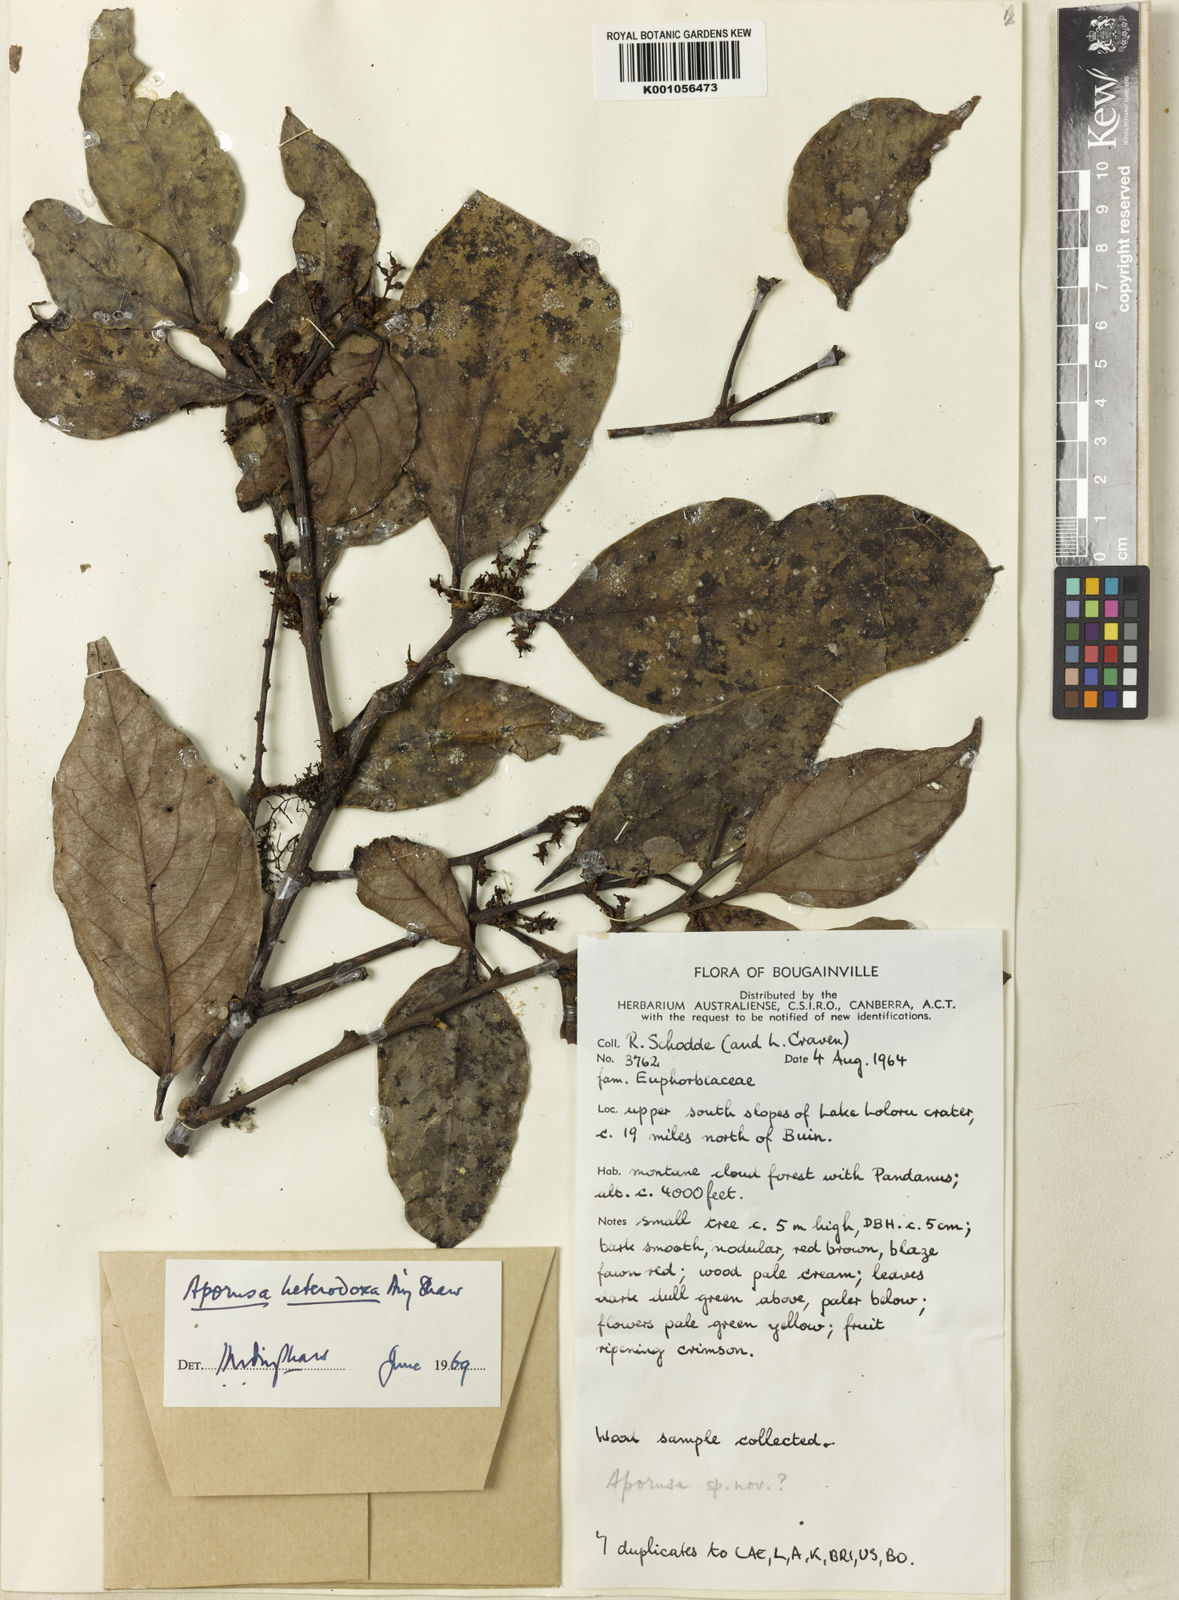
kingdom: Plantae
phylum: Tracheophyta
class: Magnoliopsida
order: Malpighiales
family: Phyllanthaceae
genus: Aporosa
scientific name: Aporosa heterodoxa
